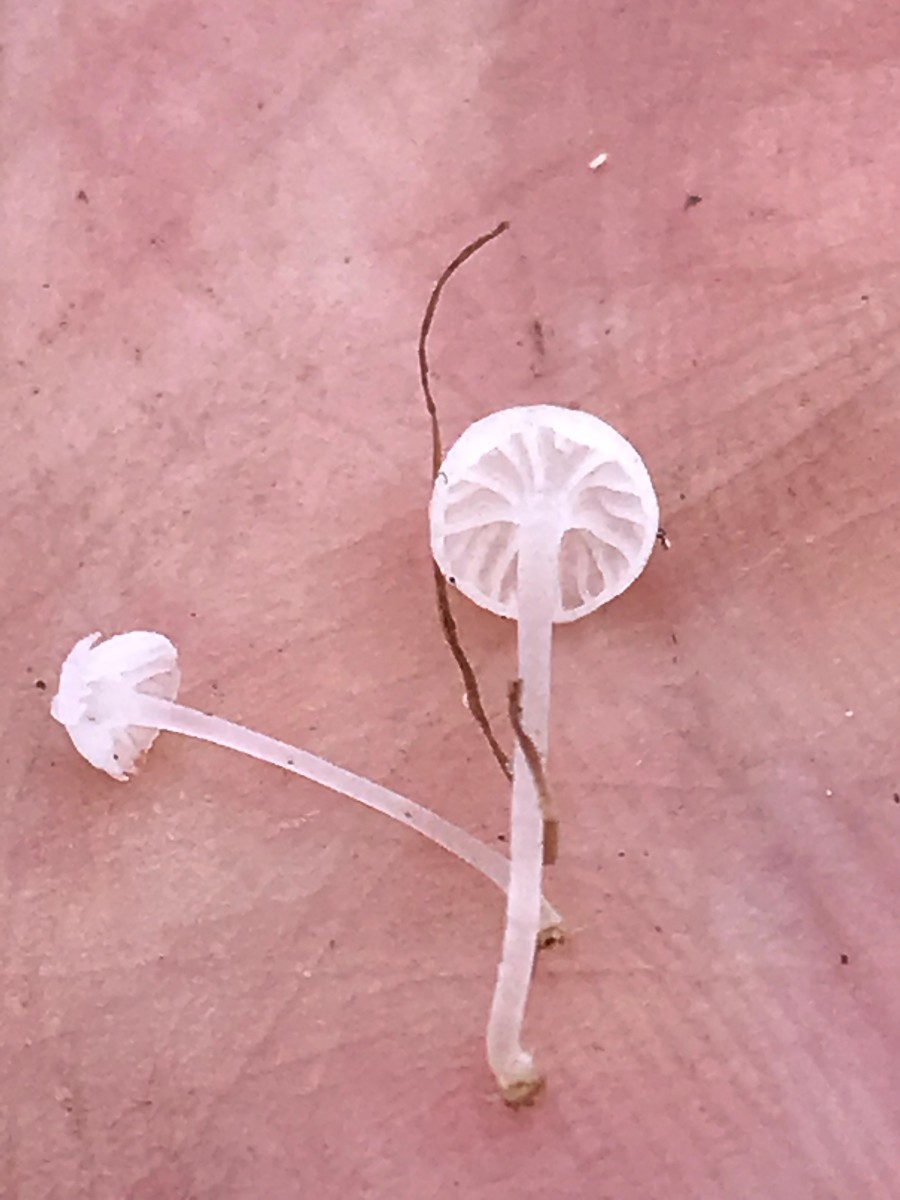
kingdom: Fungi
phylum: Basidiomycota
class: Agaricomycetes
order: Agaricales
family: Mycenaceae
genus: Atheniella
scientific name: Atheniella delectabilis
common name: nitrøs huesvamp
